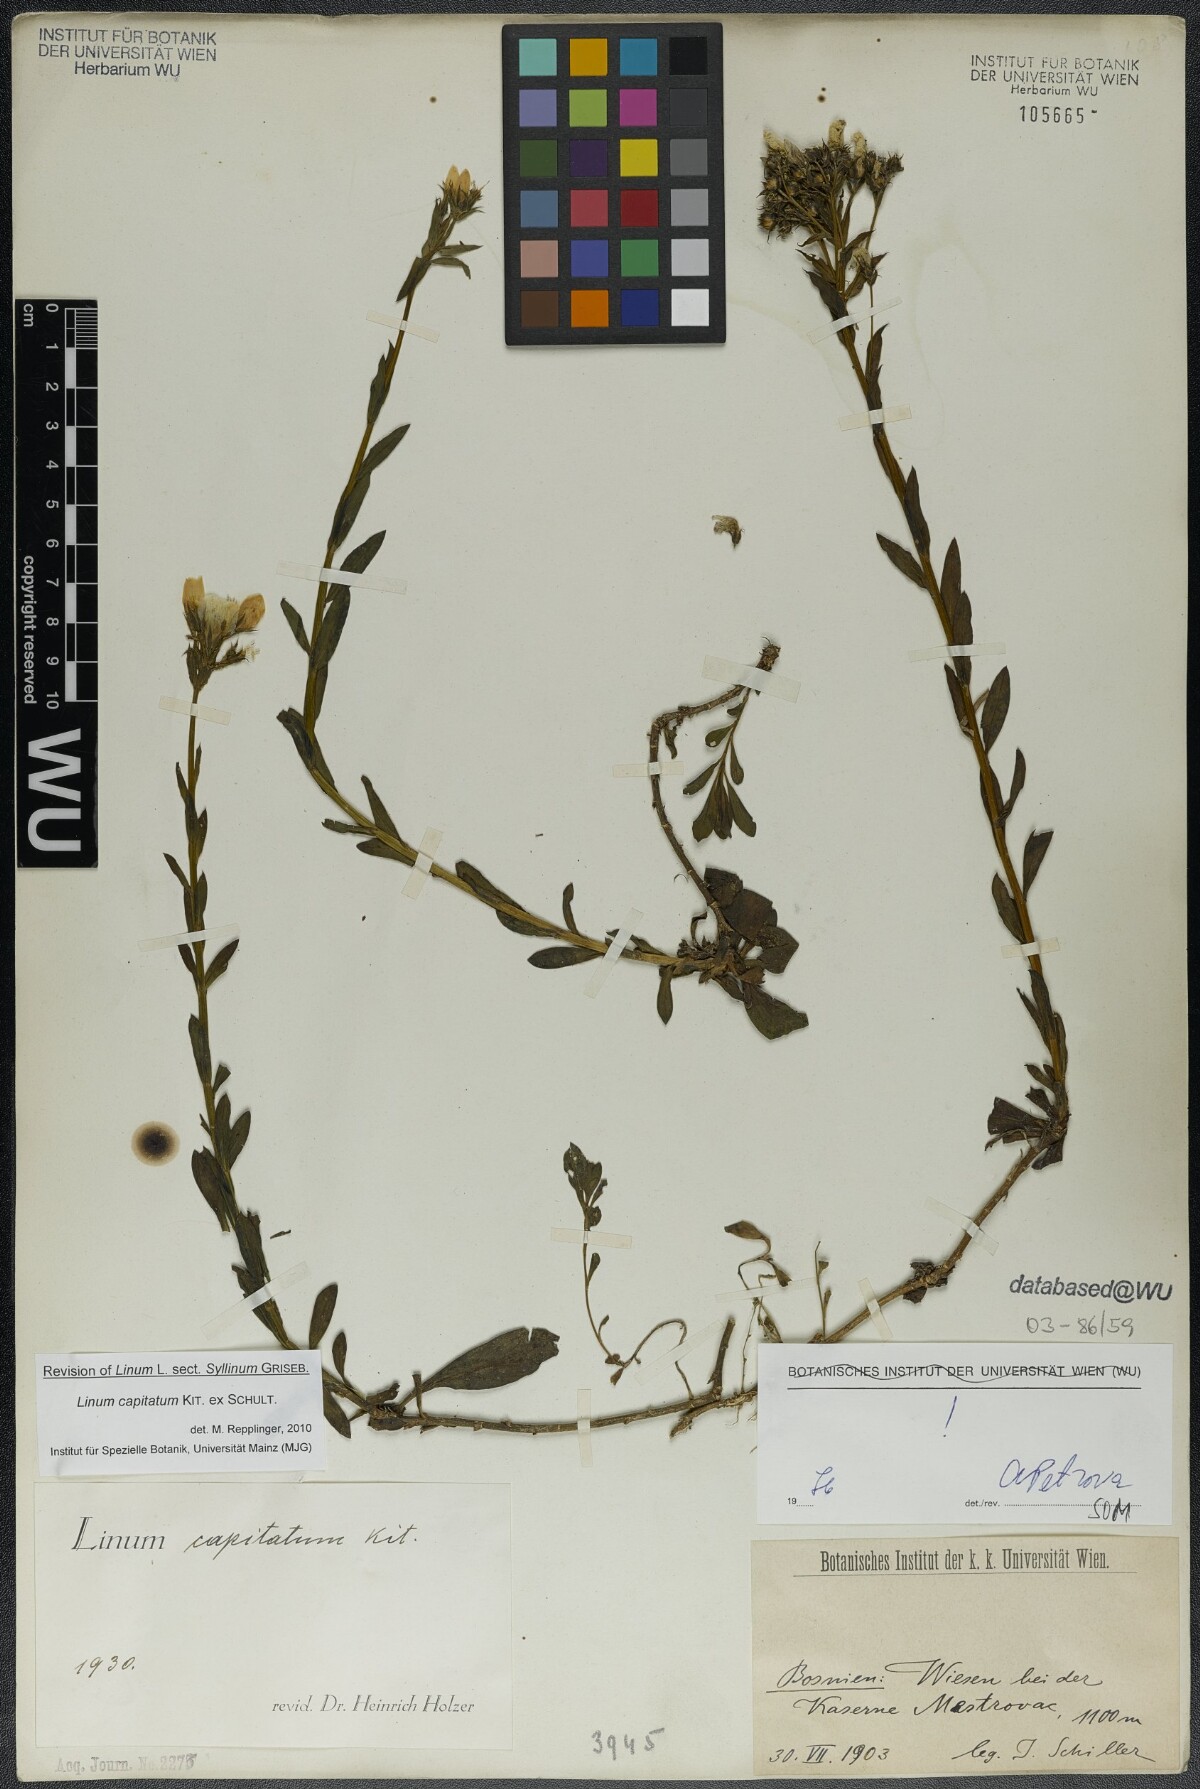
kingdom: Plantae
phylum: Tracheophyta
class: Magnoliopsida
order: Malpighiales
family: Linaceae
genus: Linum
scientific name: Linum capitatum
